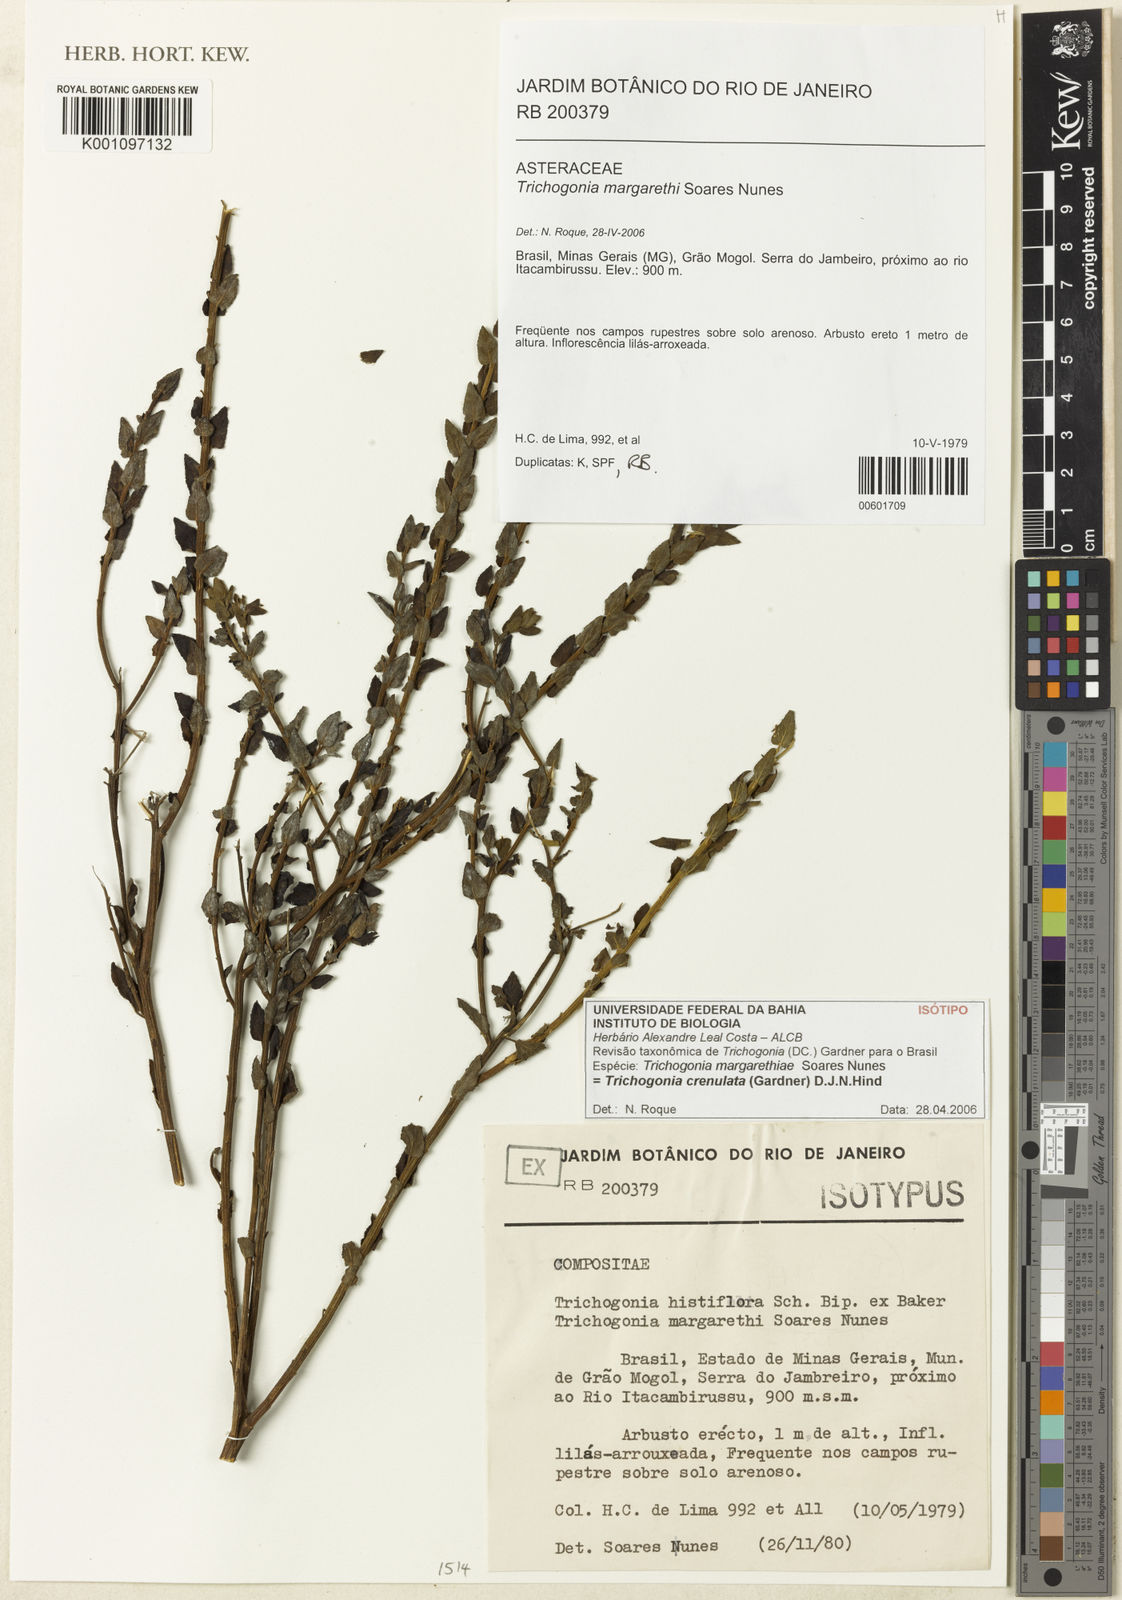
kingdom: Plantae
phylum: Tracheophyta
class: Magnoliopsida
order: Asterales
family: Asteraceae
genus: Trichogonia
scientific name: Trichogonia crenulata
